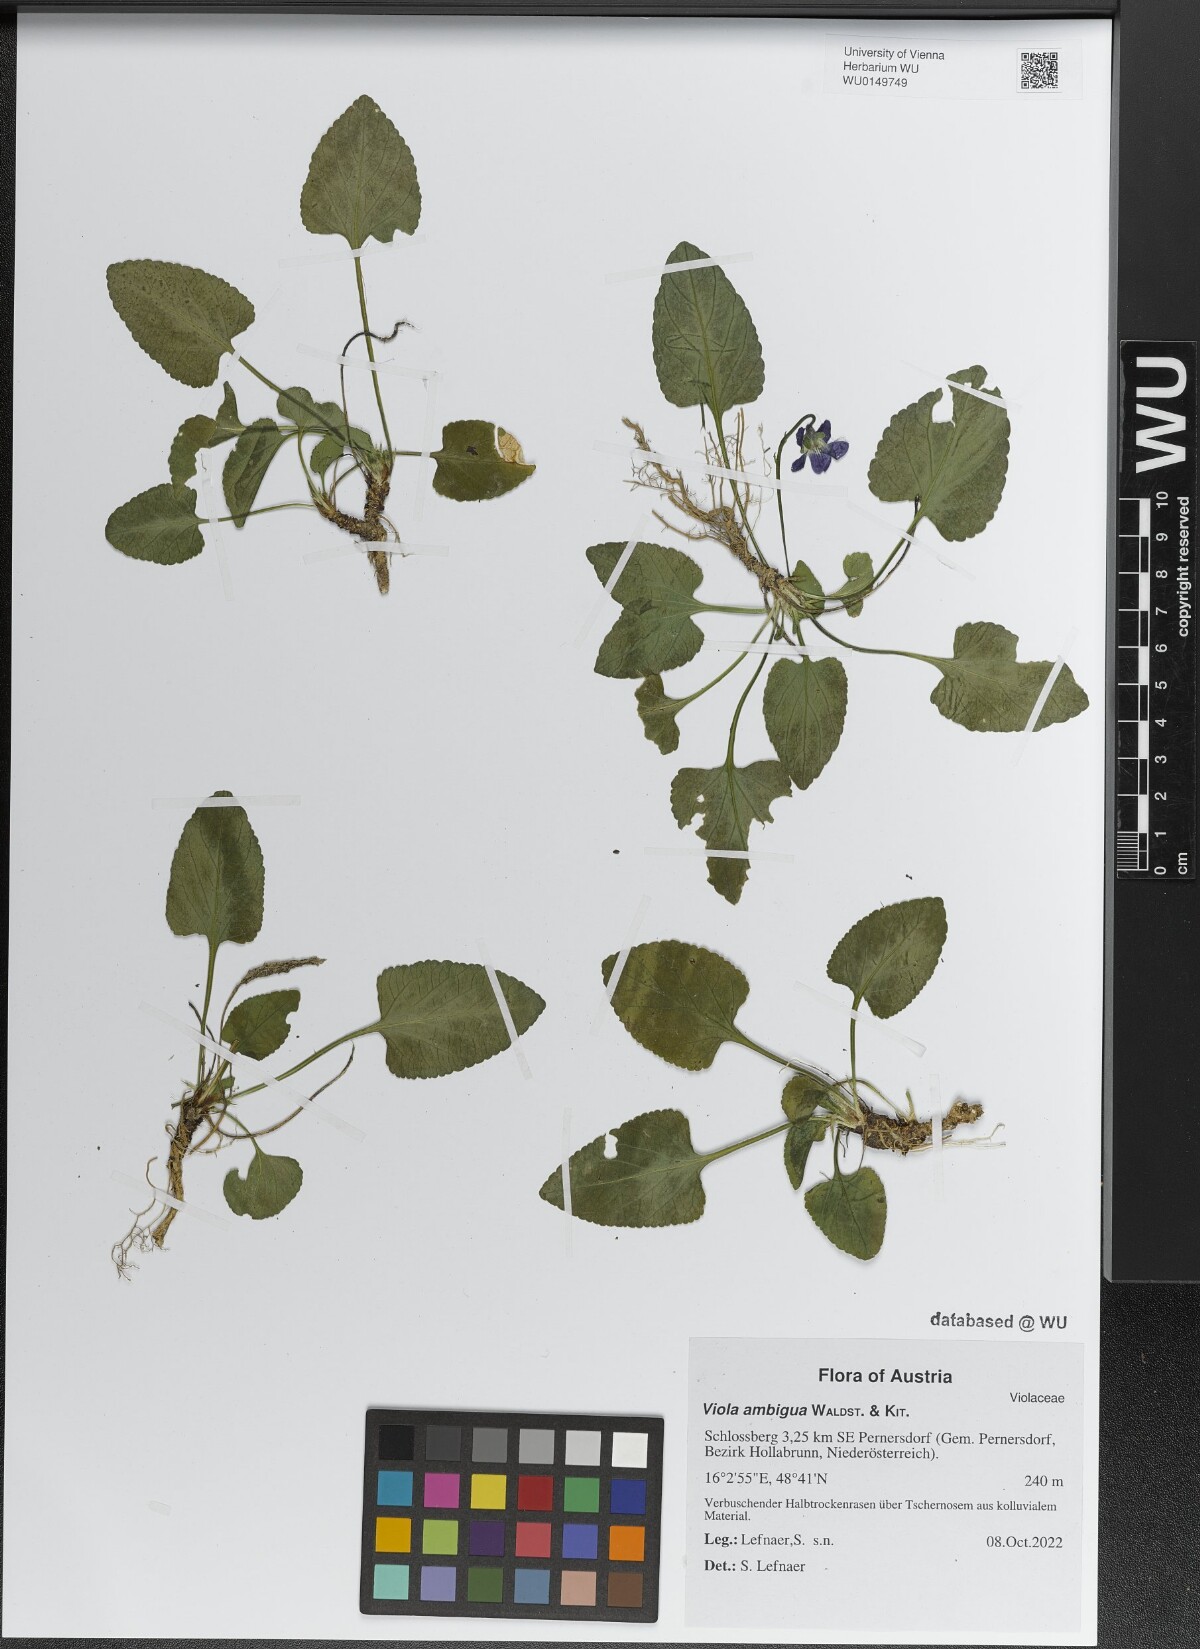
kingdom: Plantae
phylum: Tracheophyta
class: Magnoliopsida
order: Malpighiales
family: Violaceae
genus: Viola
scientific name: Viola ambigua
